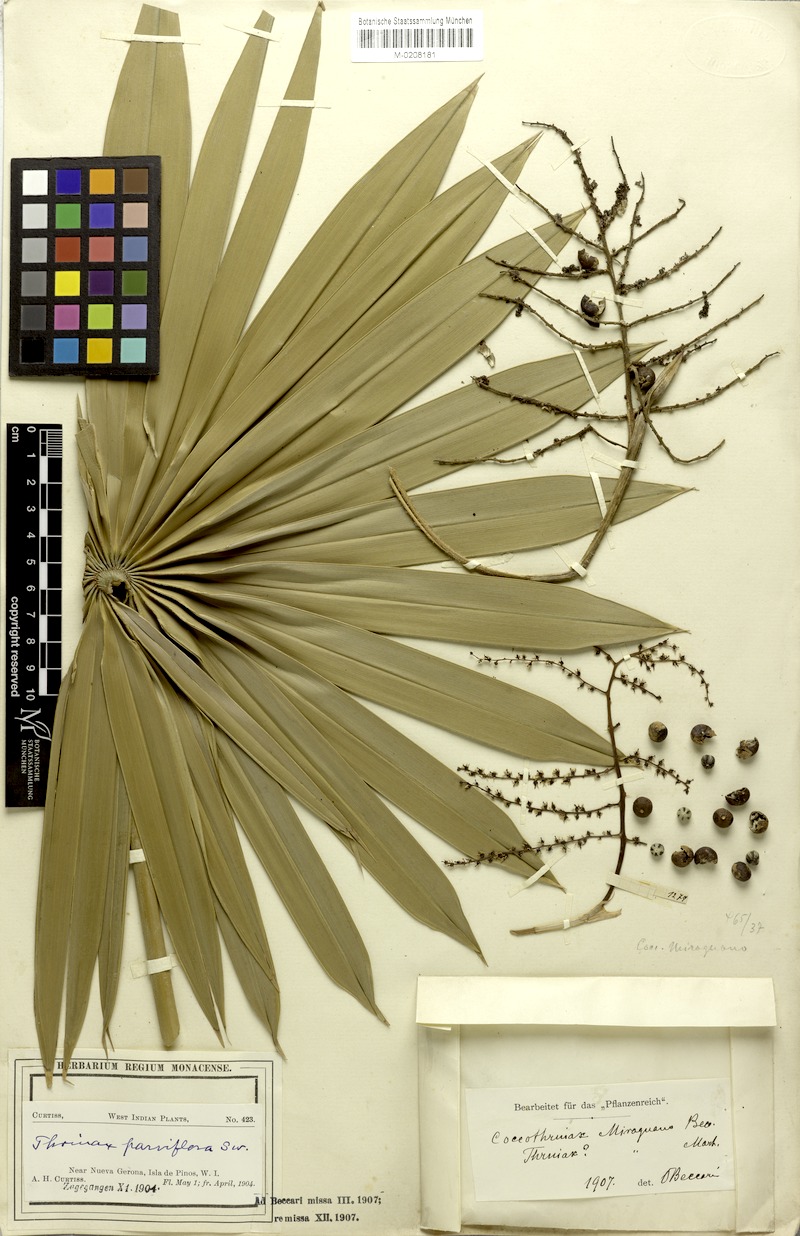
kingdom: Plantae
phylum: Tracheophyta
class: Liliopsida
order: Arecales
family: Arecaceae
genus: Coccothrinax
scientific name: Coccothrinax acuminata
